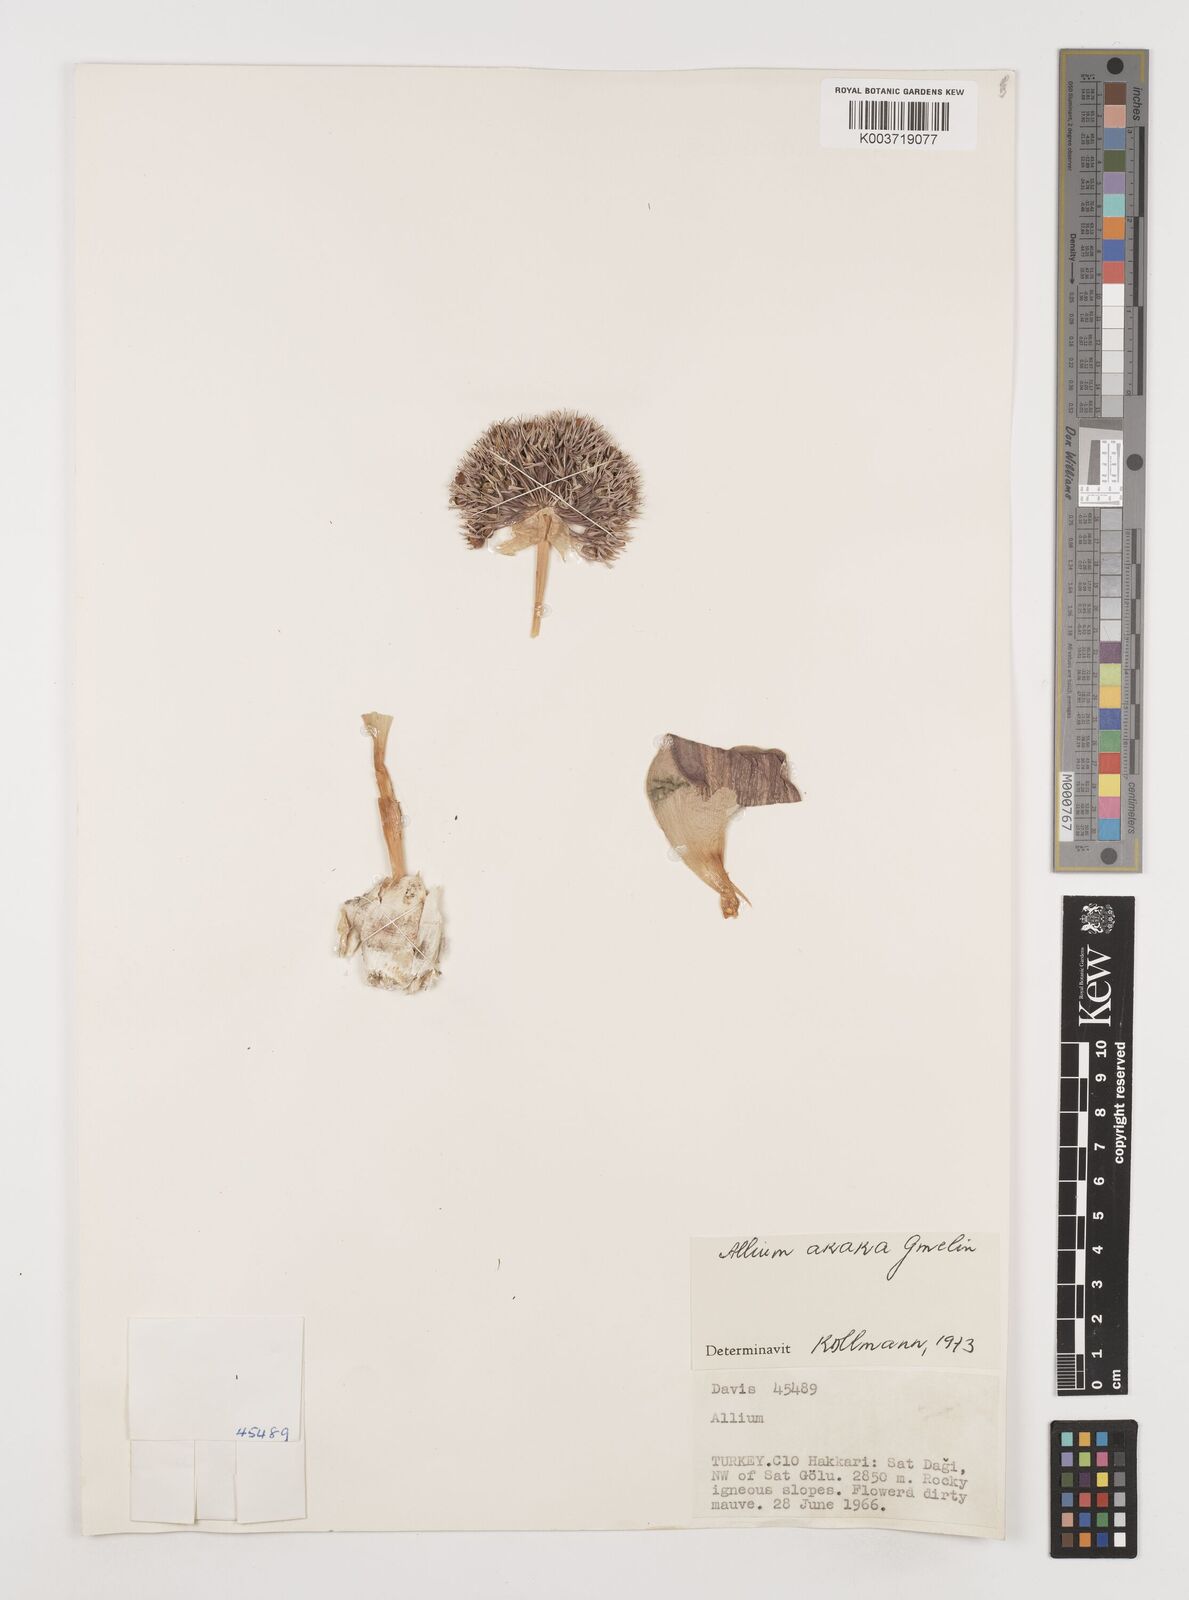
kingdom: Plantae
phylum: Tracheophyta
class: Liliopsida
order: Asparagales
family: Amaryllidaceae
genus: Allium
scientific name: Allium akaka
